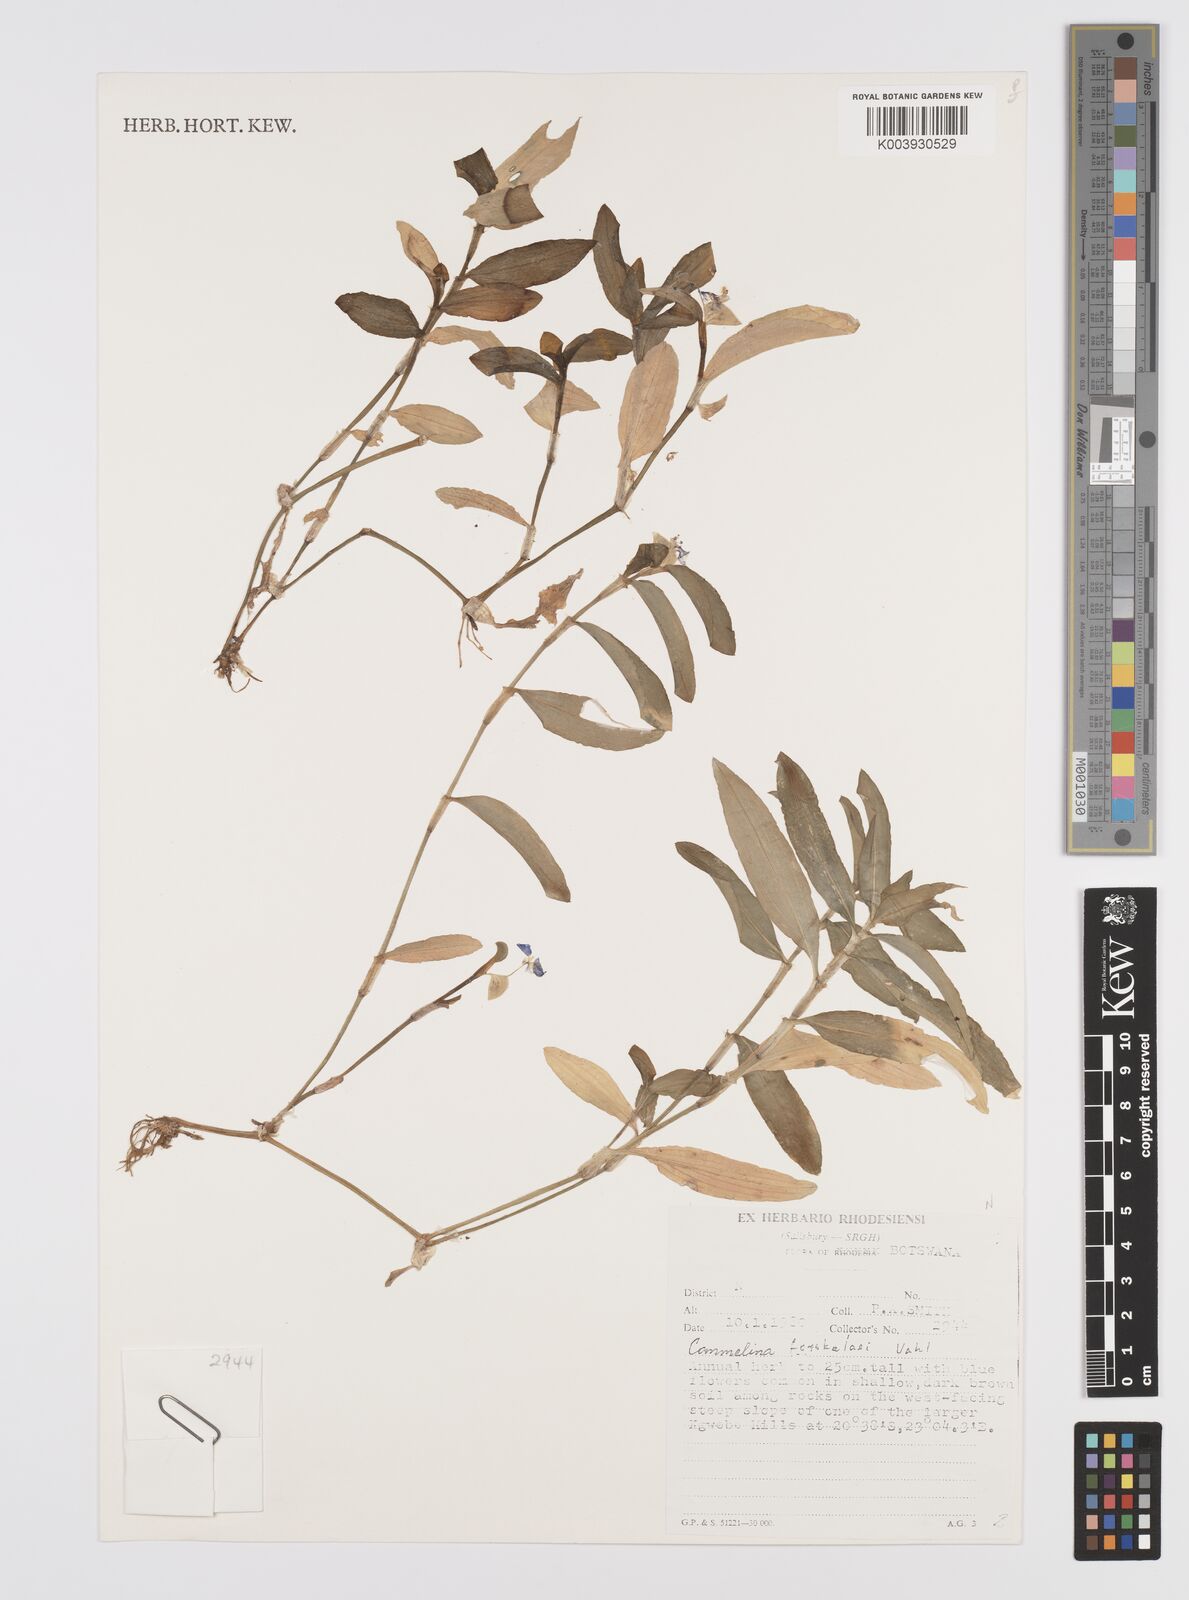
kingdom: Plantae
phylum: Tracheophyta
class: Liliopsida
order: Commelinales
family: Commelinaceae
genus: Commelina
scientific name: Commelina forskaolii
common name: Rat's ear
